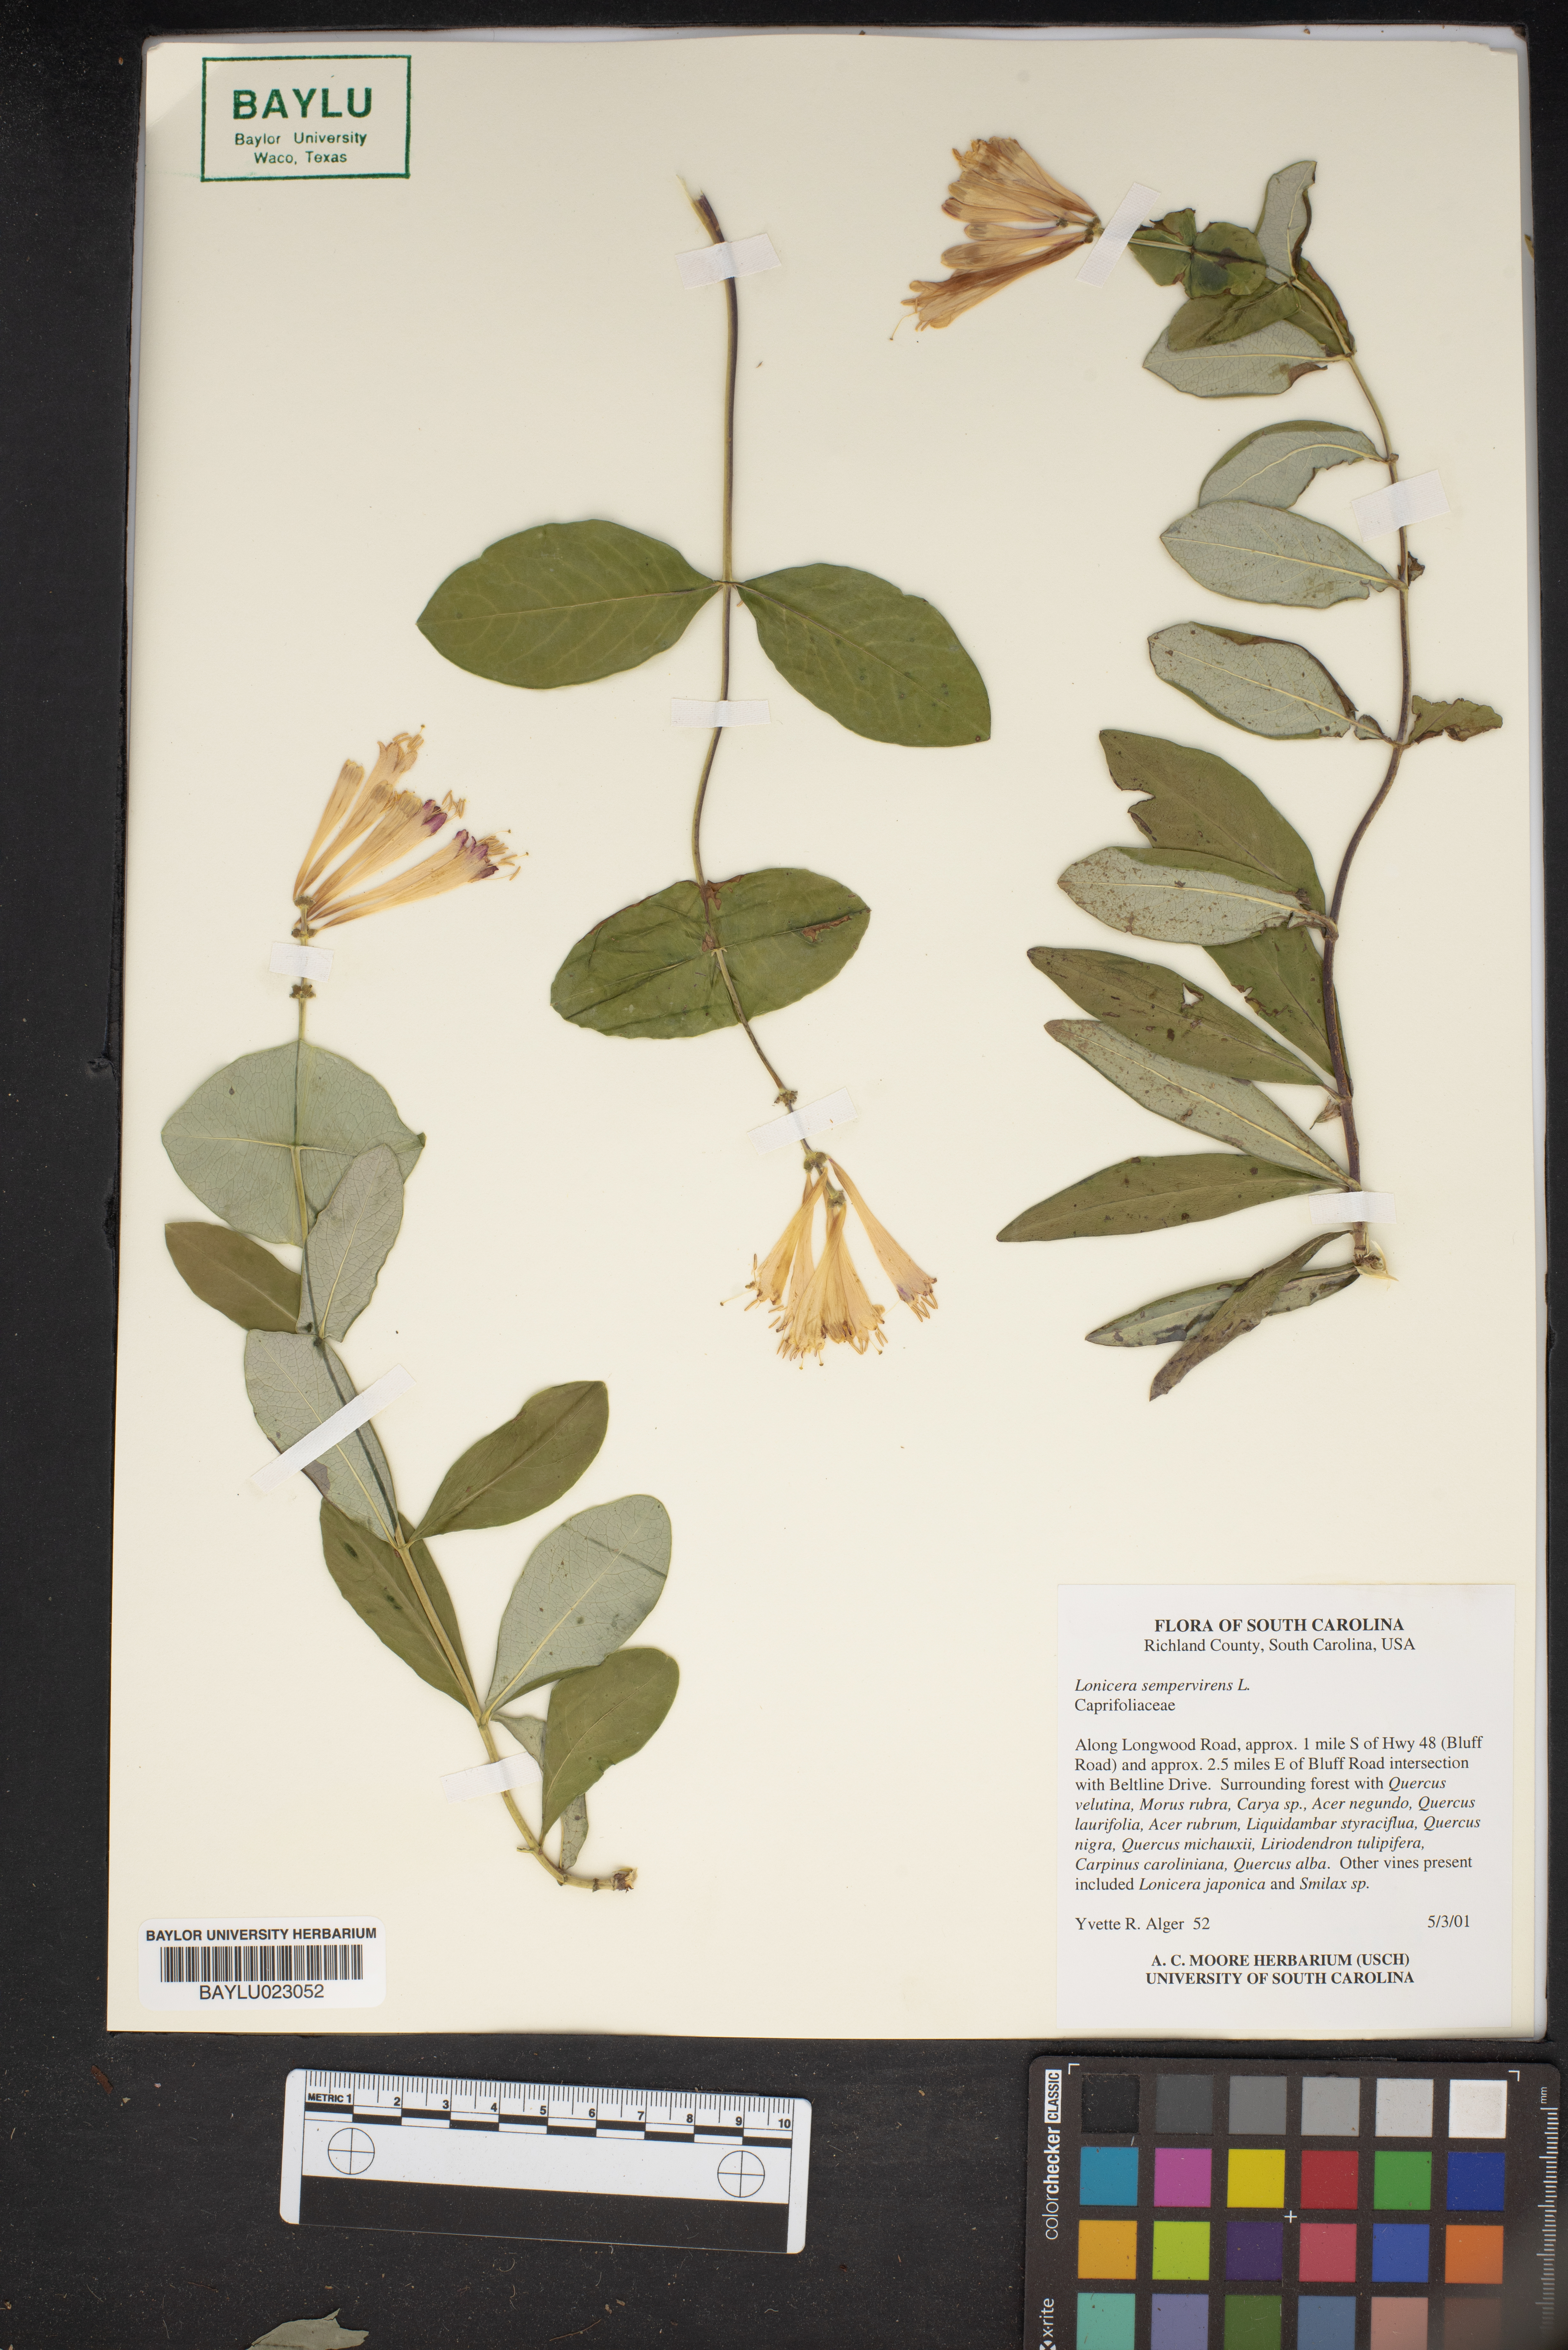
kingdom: Plantae
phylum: Tracheophyta
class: Magnoliopsida
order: Dipsacales
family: Caprifoliaceae
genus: Lonicera
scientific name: Lonicera sempervirens
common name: Coral honeysuckle
